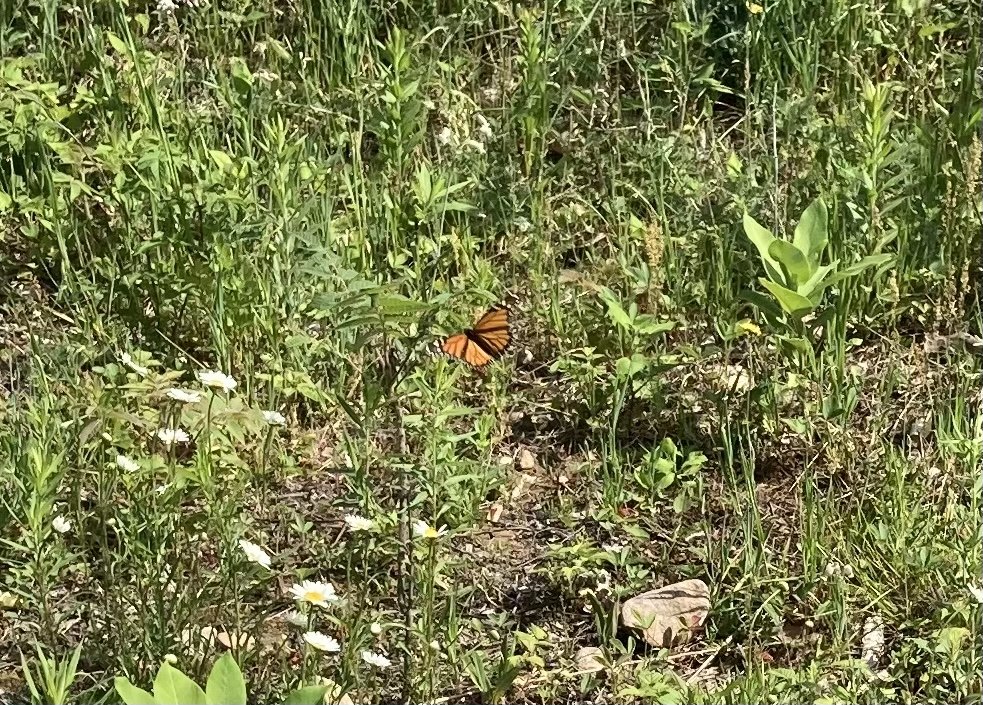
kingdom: Animalia
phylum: Arthropoda
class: Insecta
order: Lepidoptera
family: Nymphalidae
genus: Danaus
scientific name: Danaus plexippus
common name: Monarch
